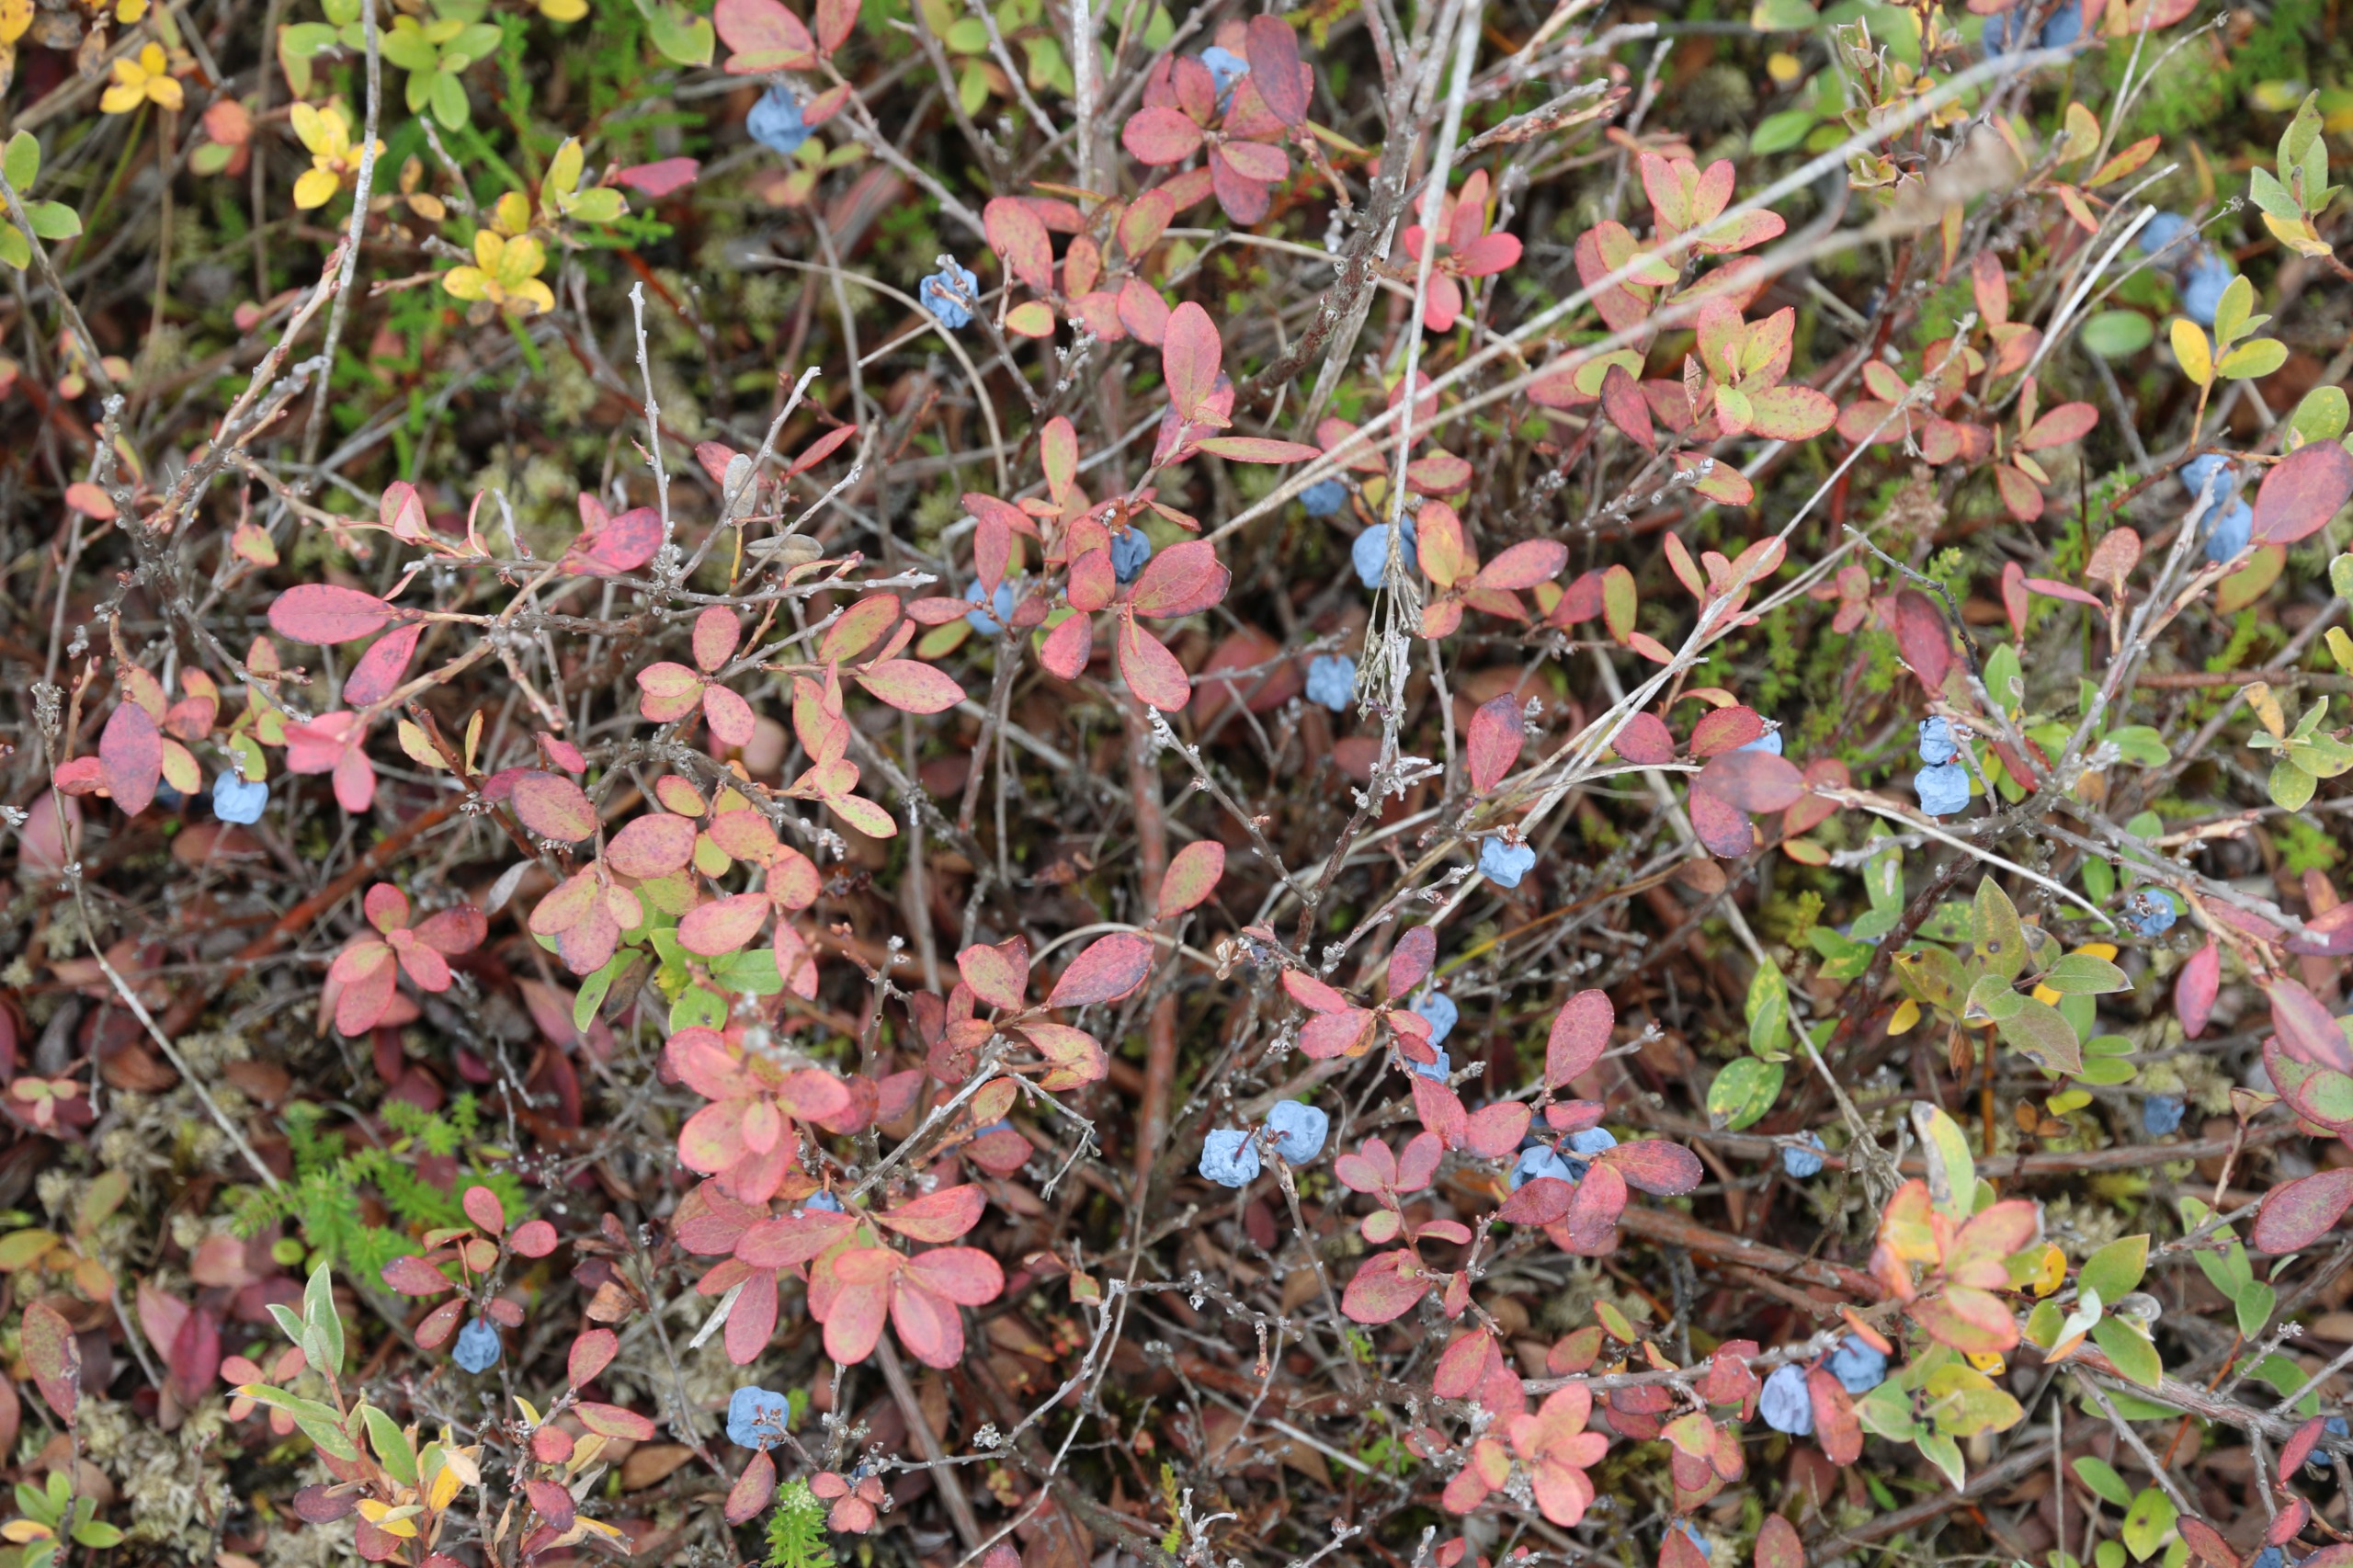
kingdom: Plantae
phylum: Tracheophyta
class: Magnoliopsida
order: Ericales
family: Ericaceae
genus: Vaccinium
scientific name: Vaccinium uliginosum
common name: Mose-bølle
